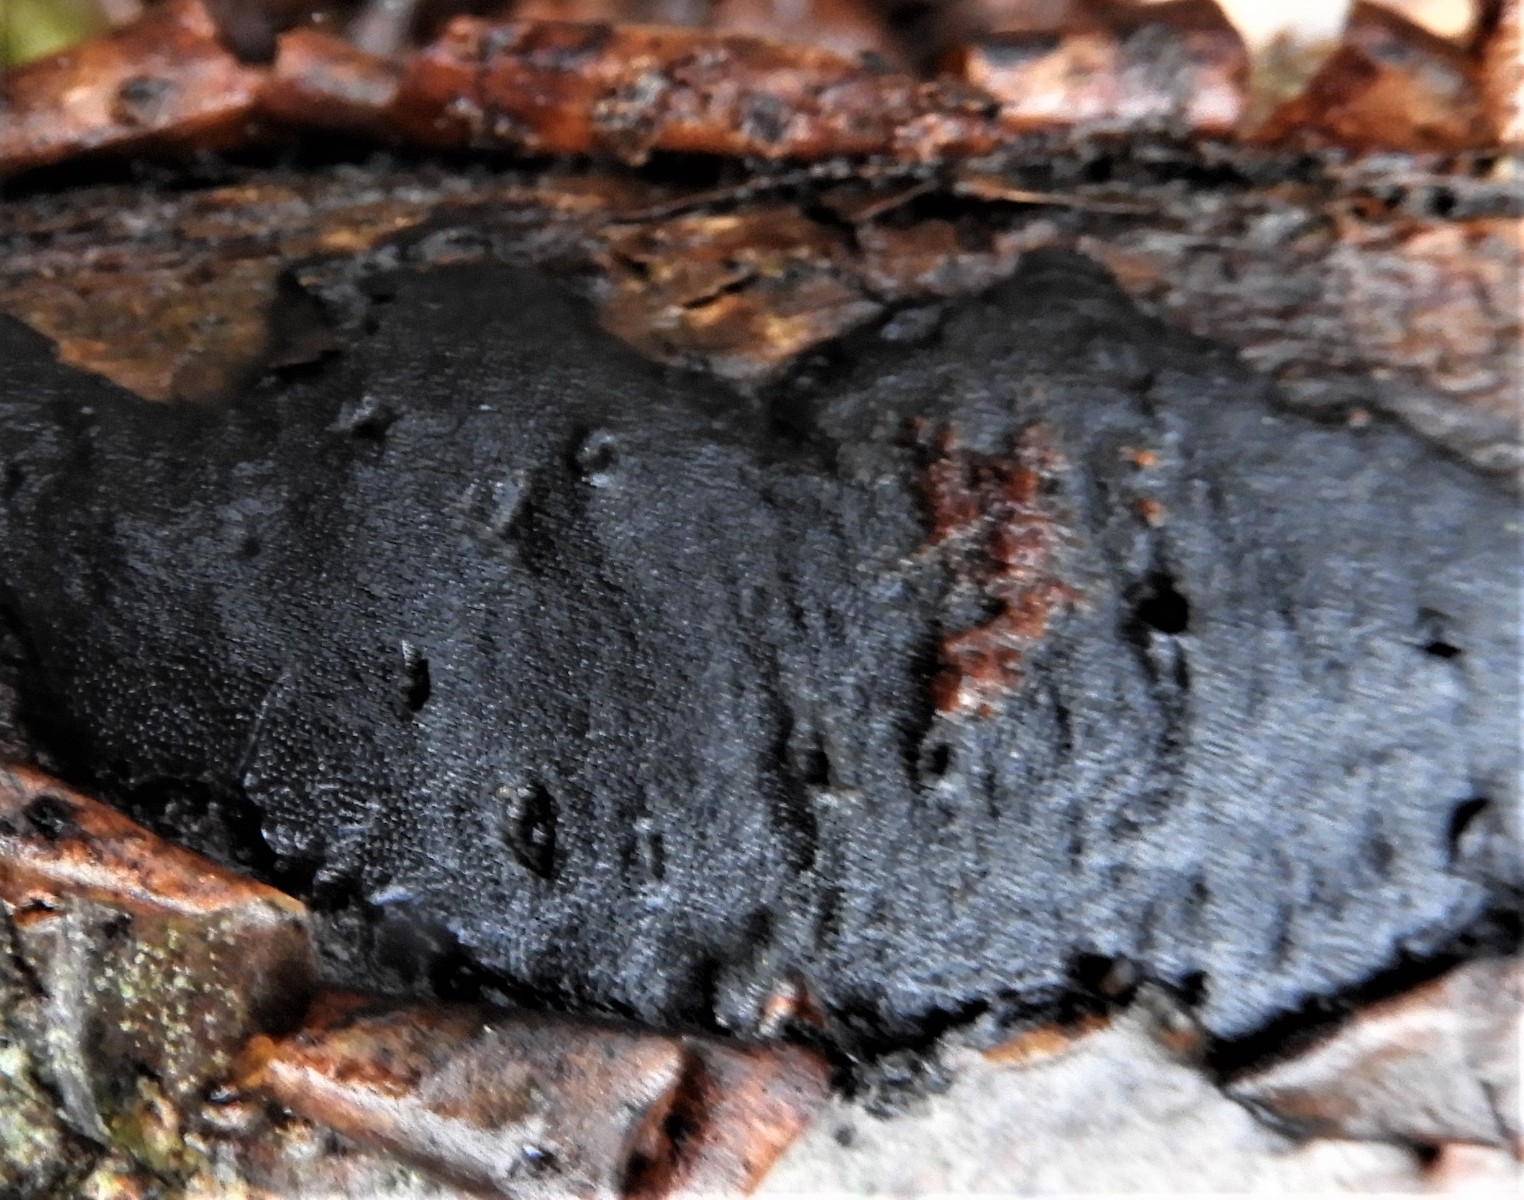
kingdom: Fungi
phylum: Ascomycota
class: Sordariomycetes
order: Xylariales
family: Diatrypaceae
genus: Diatrype
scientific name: Diatrype stigma
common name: udbredt kulskorpe
